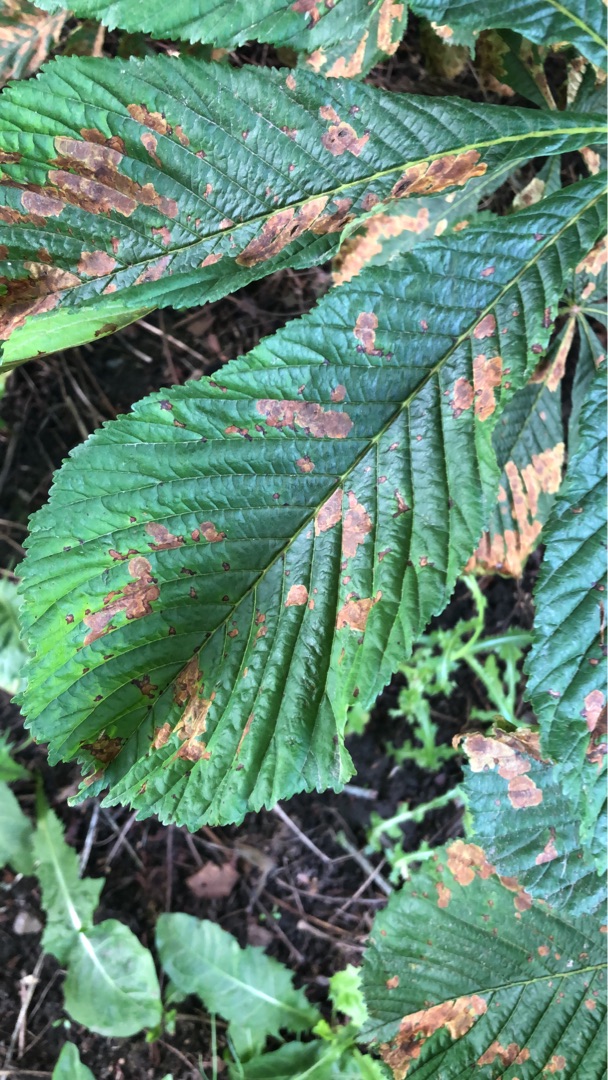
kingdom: Animalia
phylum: Arthropoda
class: Insecta
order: Lepidoptera
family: Gracillariidae
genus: Cameraria
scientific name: Cameraria ohridella
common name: Kastanieminérmøl
